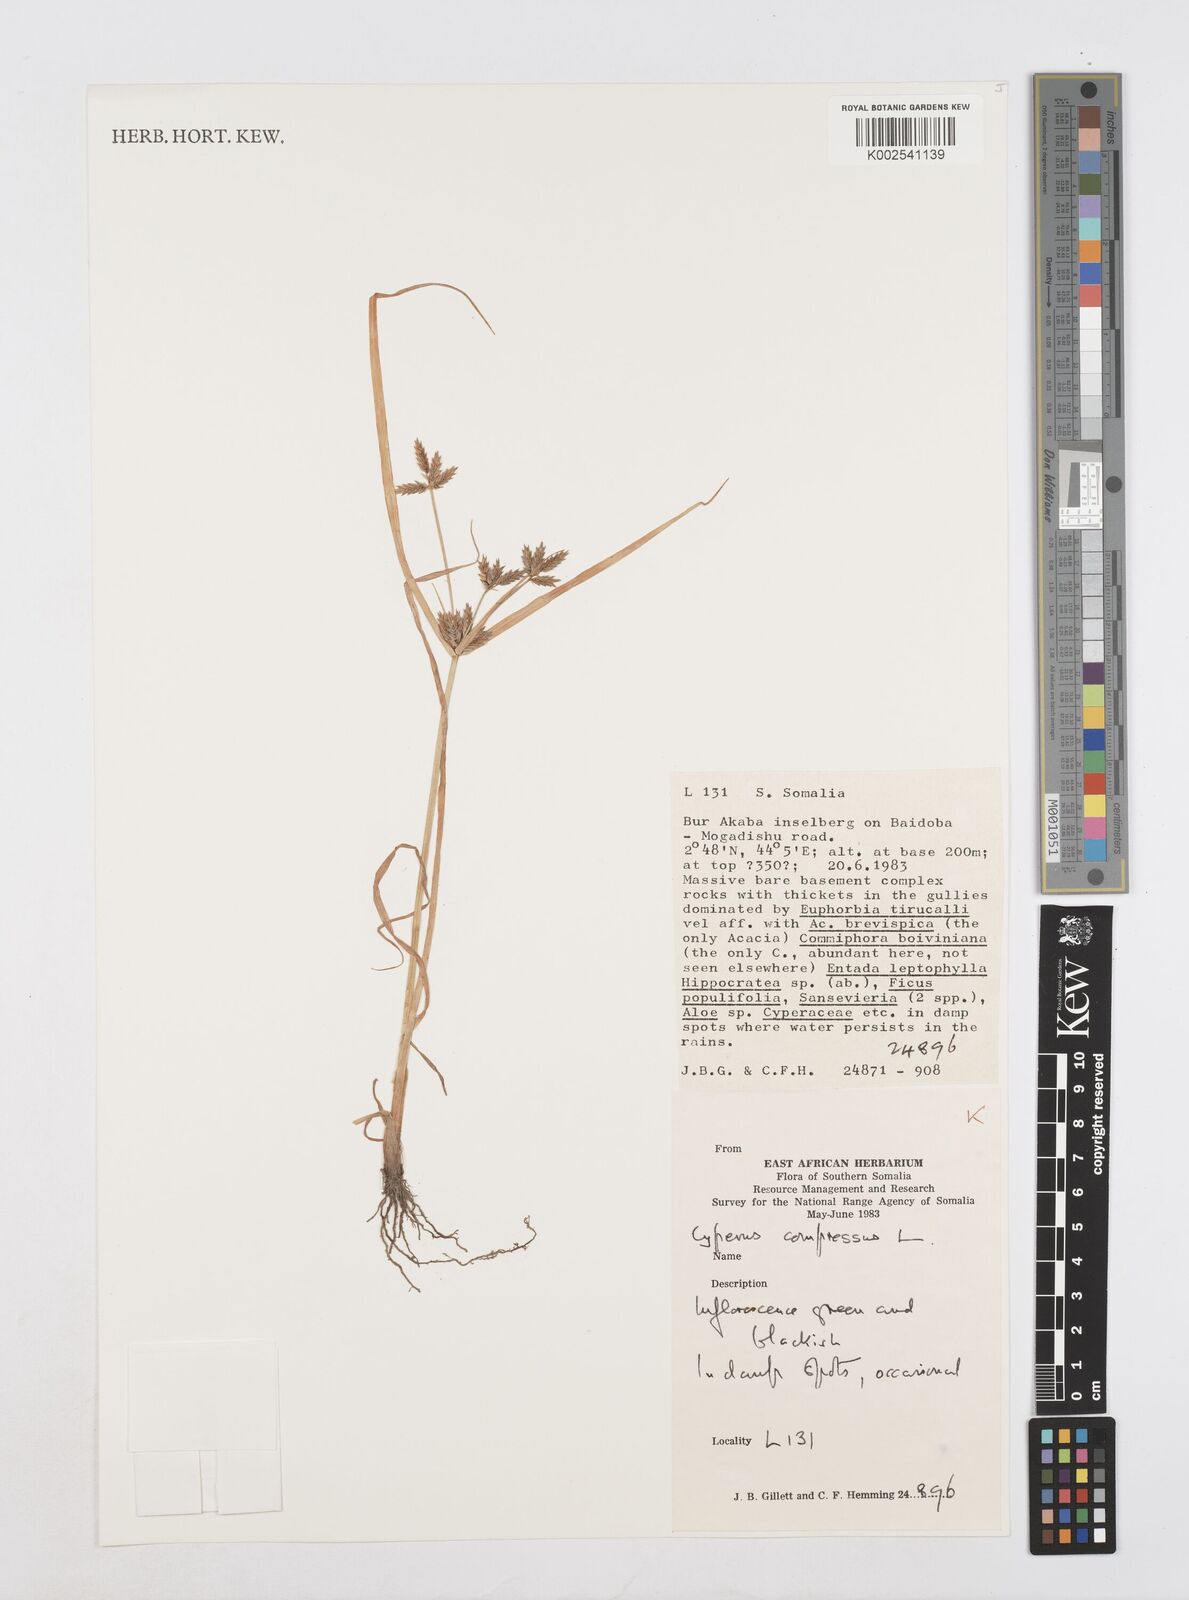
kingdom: Plantae
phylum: Tracheophyta
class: Liliopsida
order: Poales
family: Cyperaceae
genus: Cyperus
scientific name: Cyperus pelophilus
